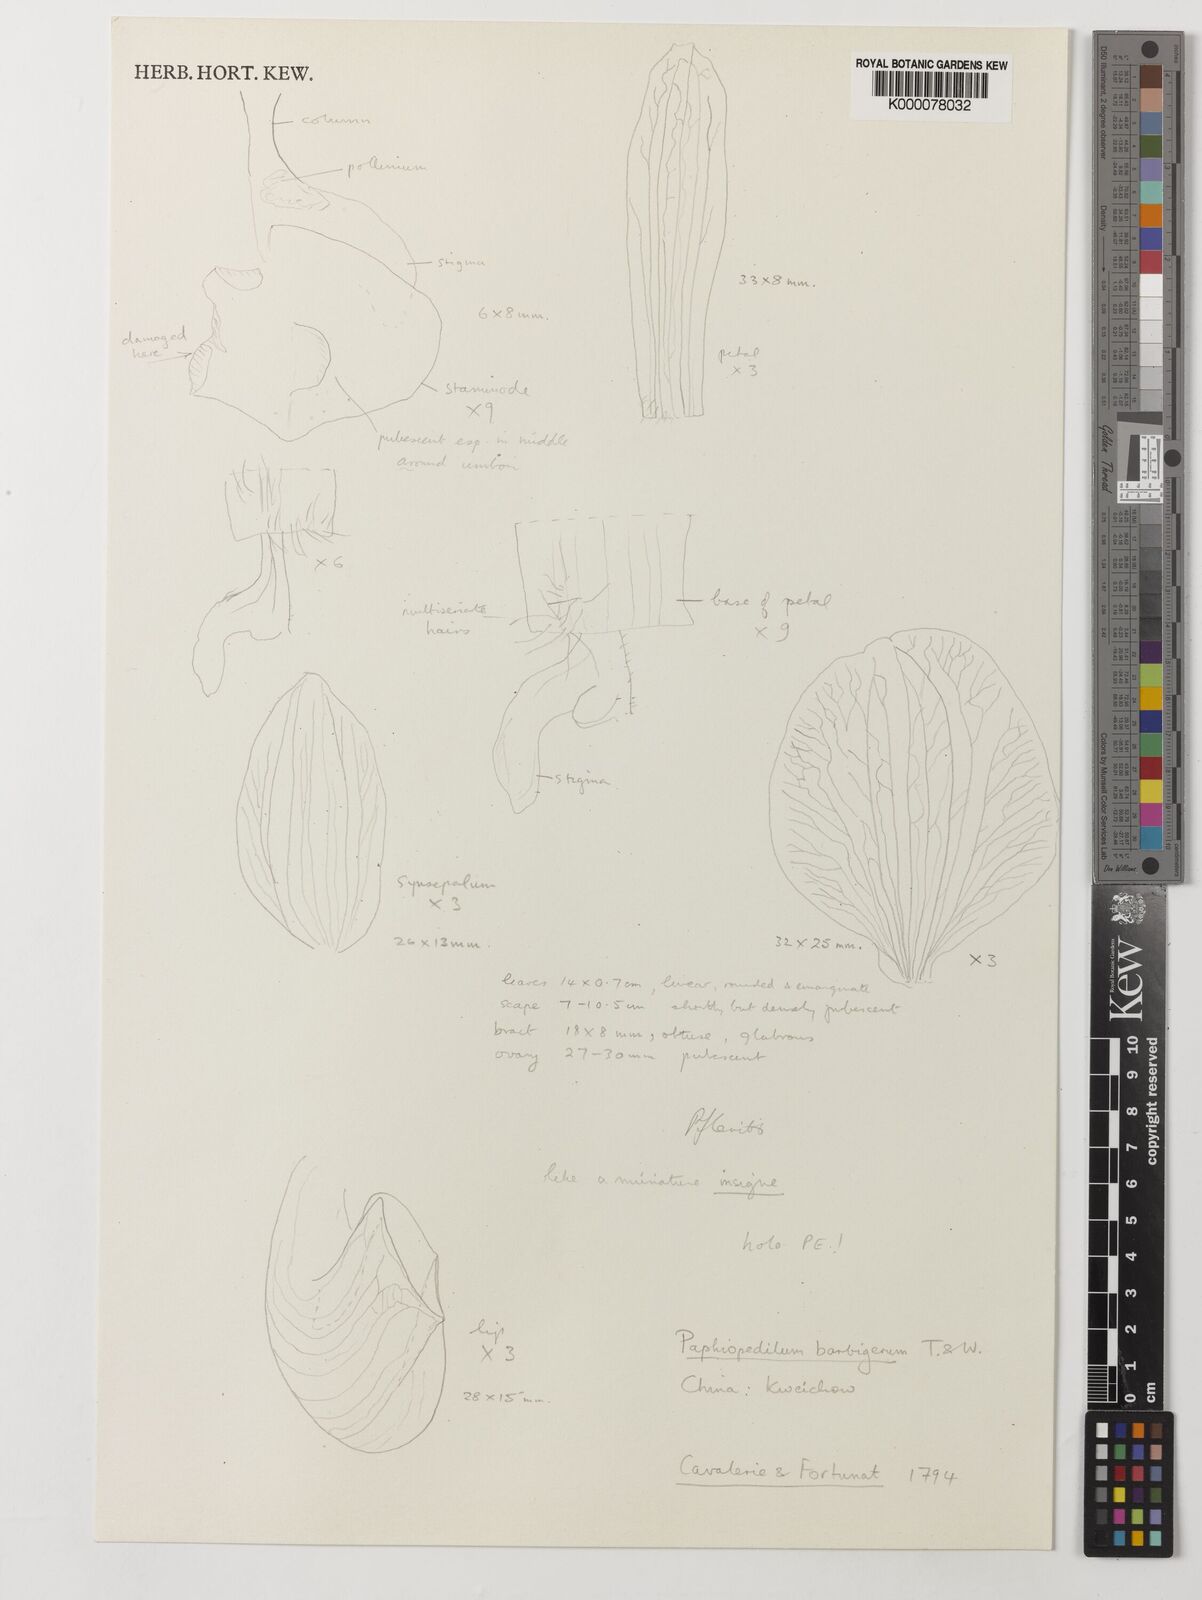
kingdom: Plantae
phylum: Tracheophyta
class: Liliopsida
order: Asparagales
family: Orchidaceae
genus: Paphiopedilum
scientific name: Paphiopedilum barbigerum
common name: Beard carrying paphiopedilum
